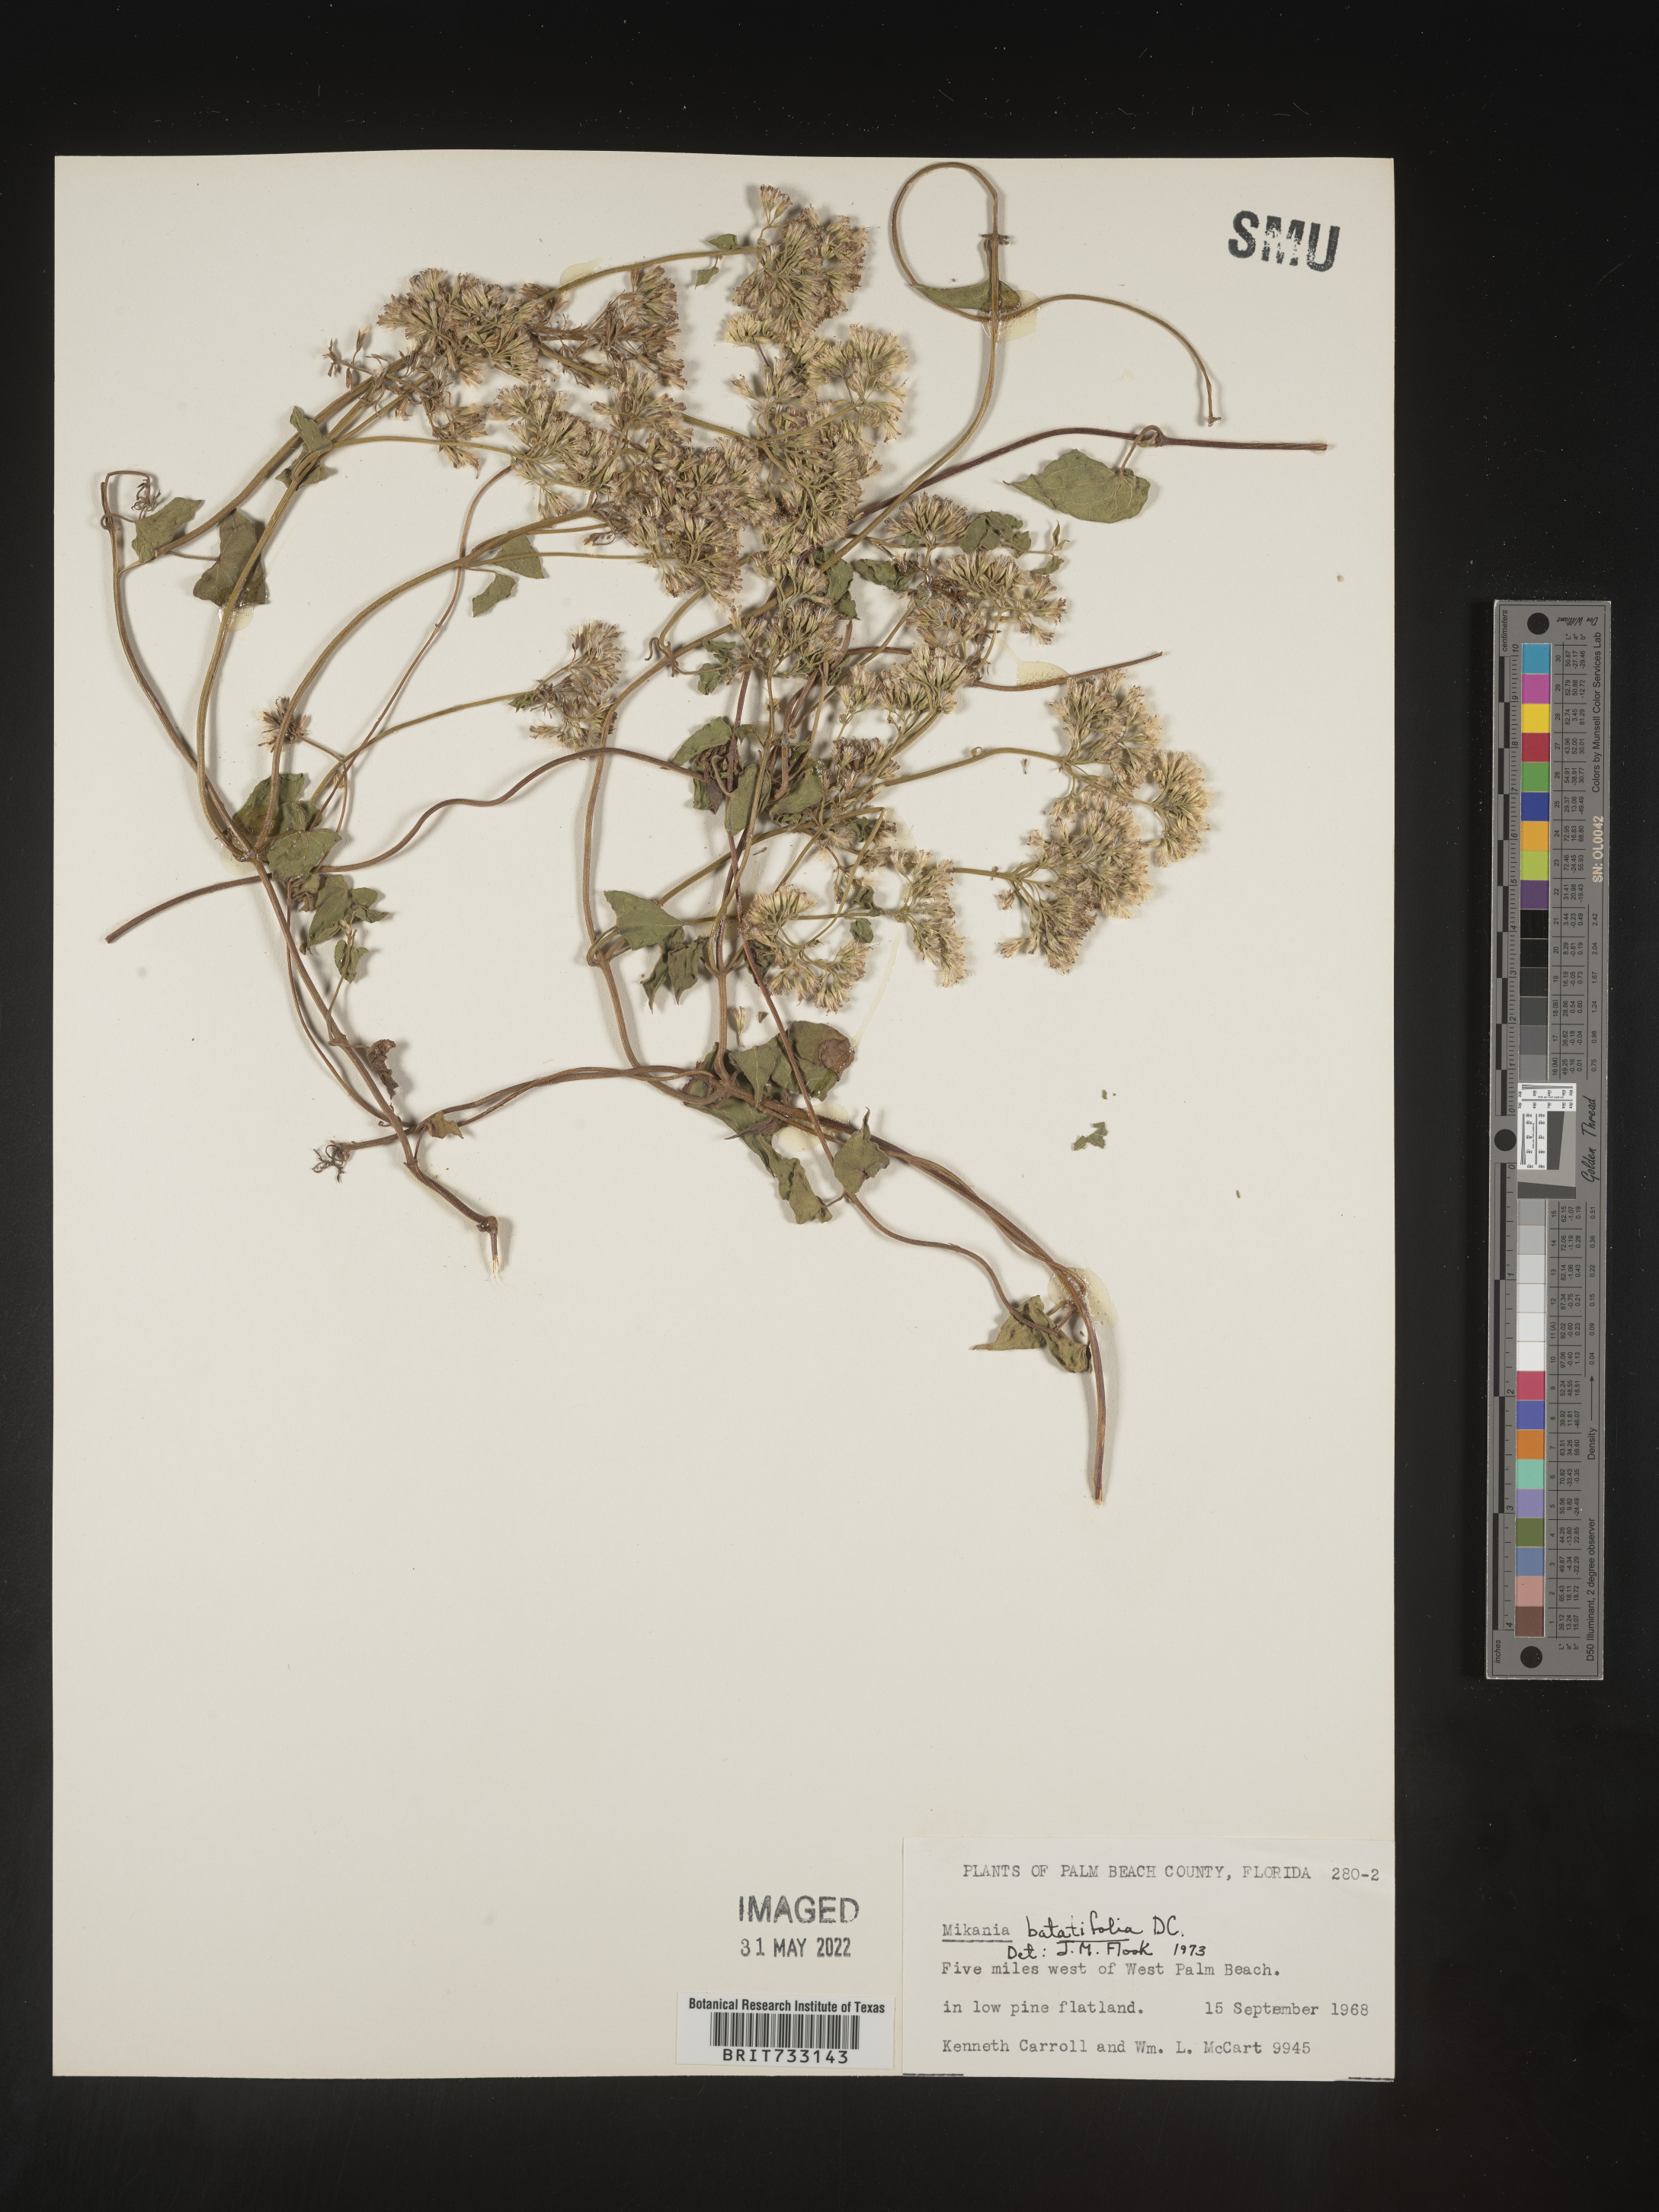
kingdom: Plantae
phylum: Tracheophyta
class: Magnoliopsida
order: Asterales
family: Asteraceae
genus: Mikania
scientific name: Mikania
